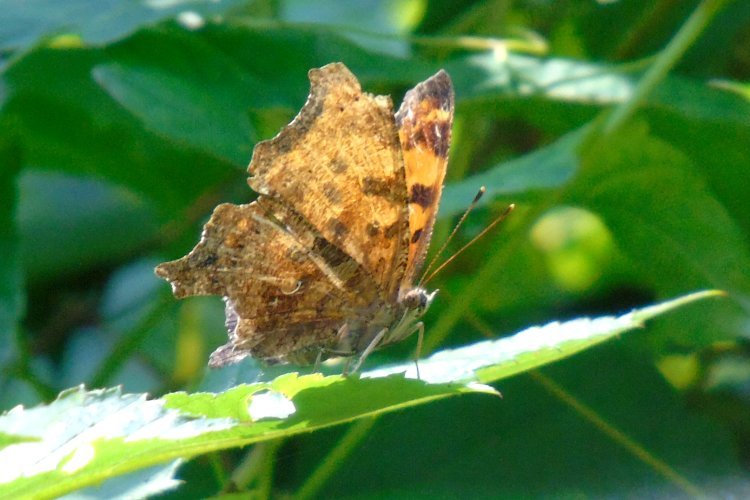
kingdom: Animalia
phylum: Arthropoda
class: Insecta
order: Lepidoptera
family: Nymphalidae
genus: Polygonia
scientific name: Polygonia comma
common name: Eastern Comma
